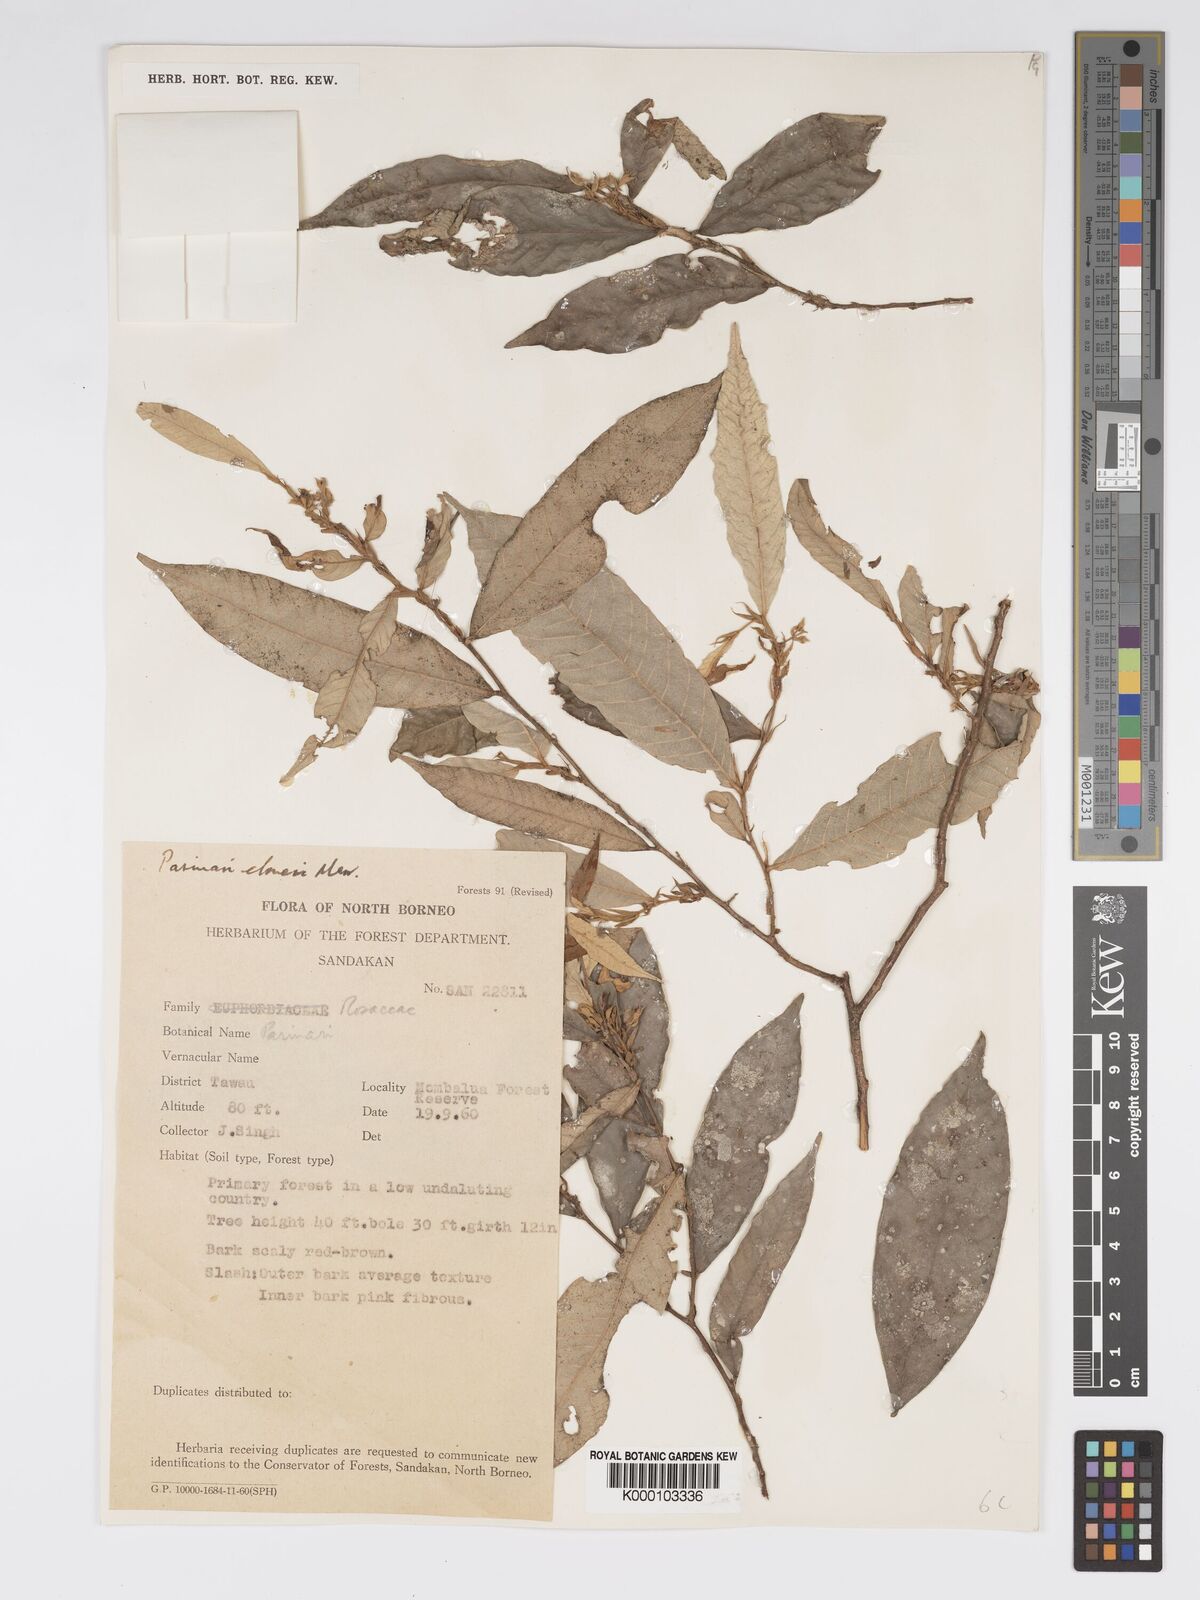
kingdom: Plantae
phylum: Tracheophyta
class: Magnoliopsida
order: Malpighiales
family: Chrysobalanaceae
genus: Parinari
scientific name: Parinari elmeri
